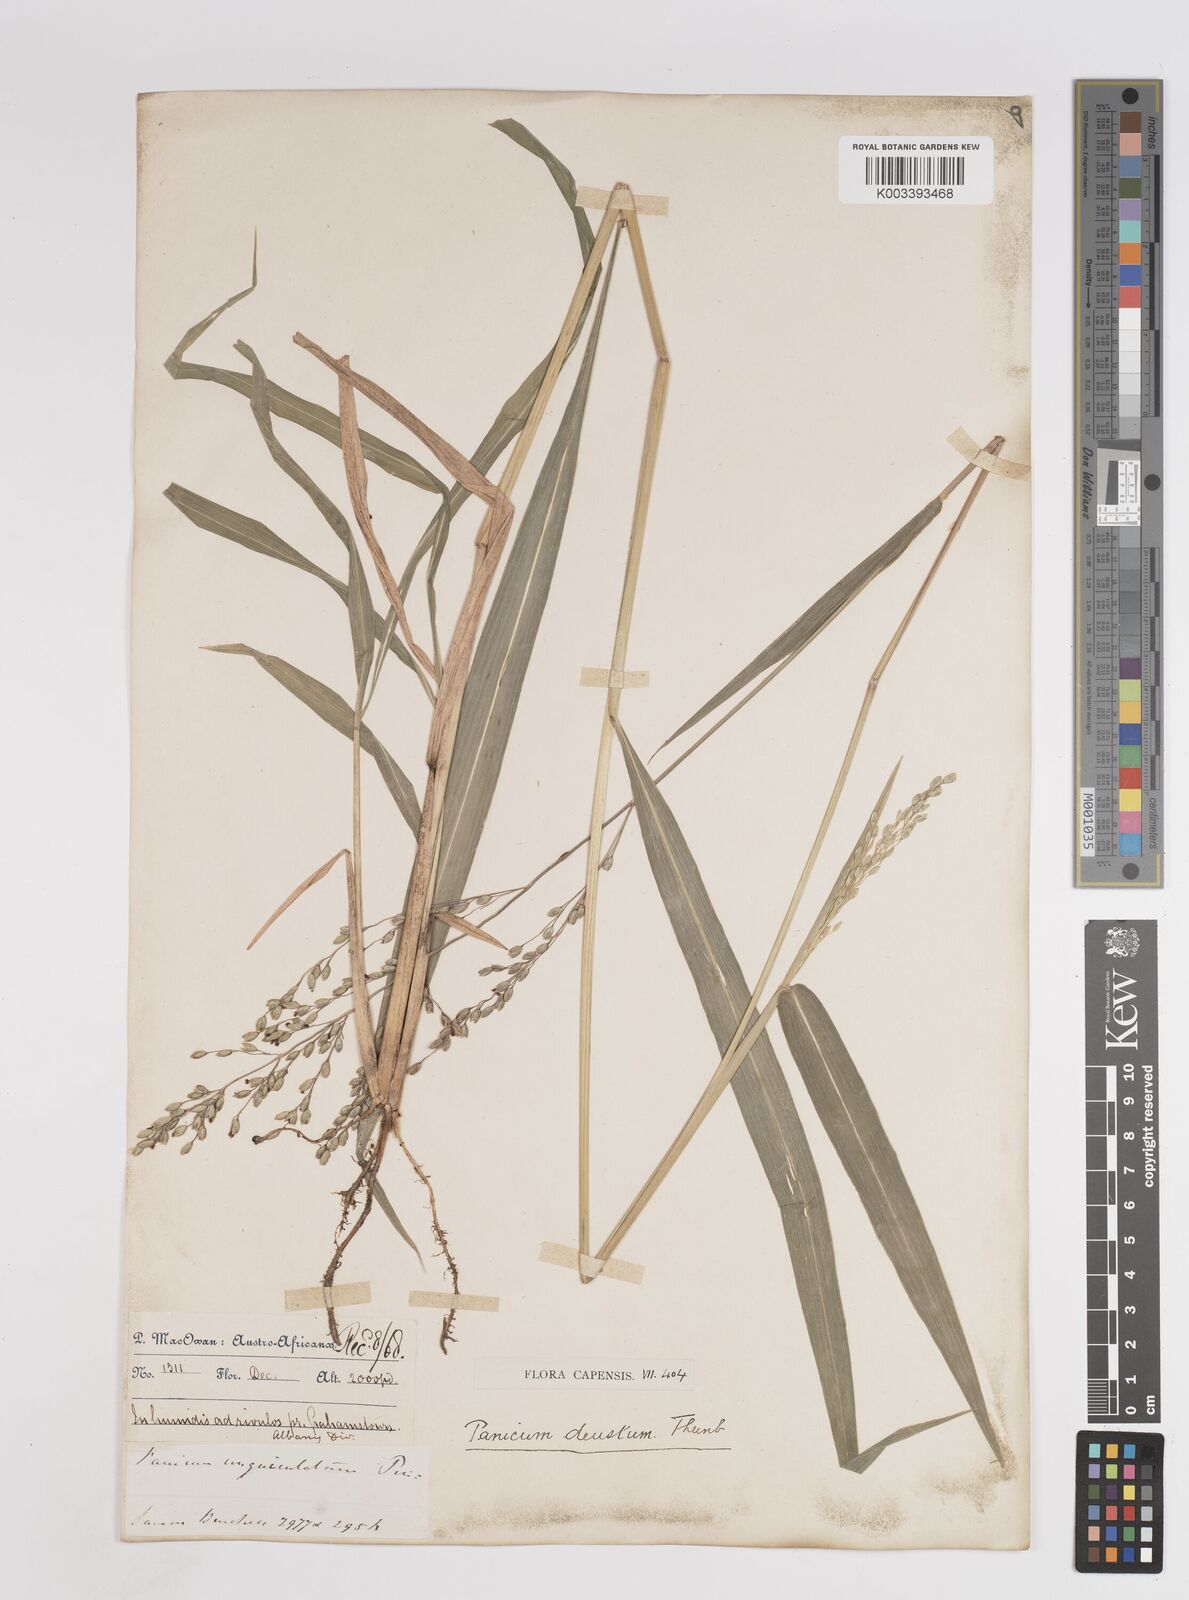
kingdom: Plantae
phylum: Tracheophyta
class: Liliopsida
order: Poales
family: Poaceae
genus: Panicum
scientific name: Panicum deustum
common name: Reed panicum
